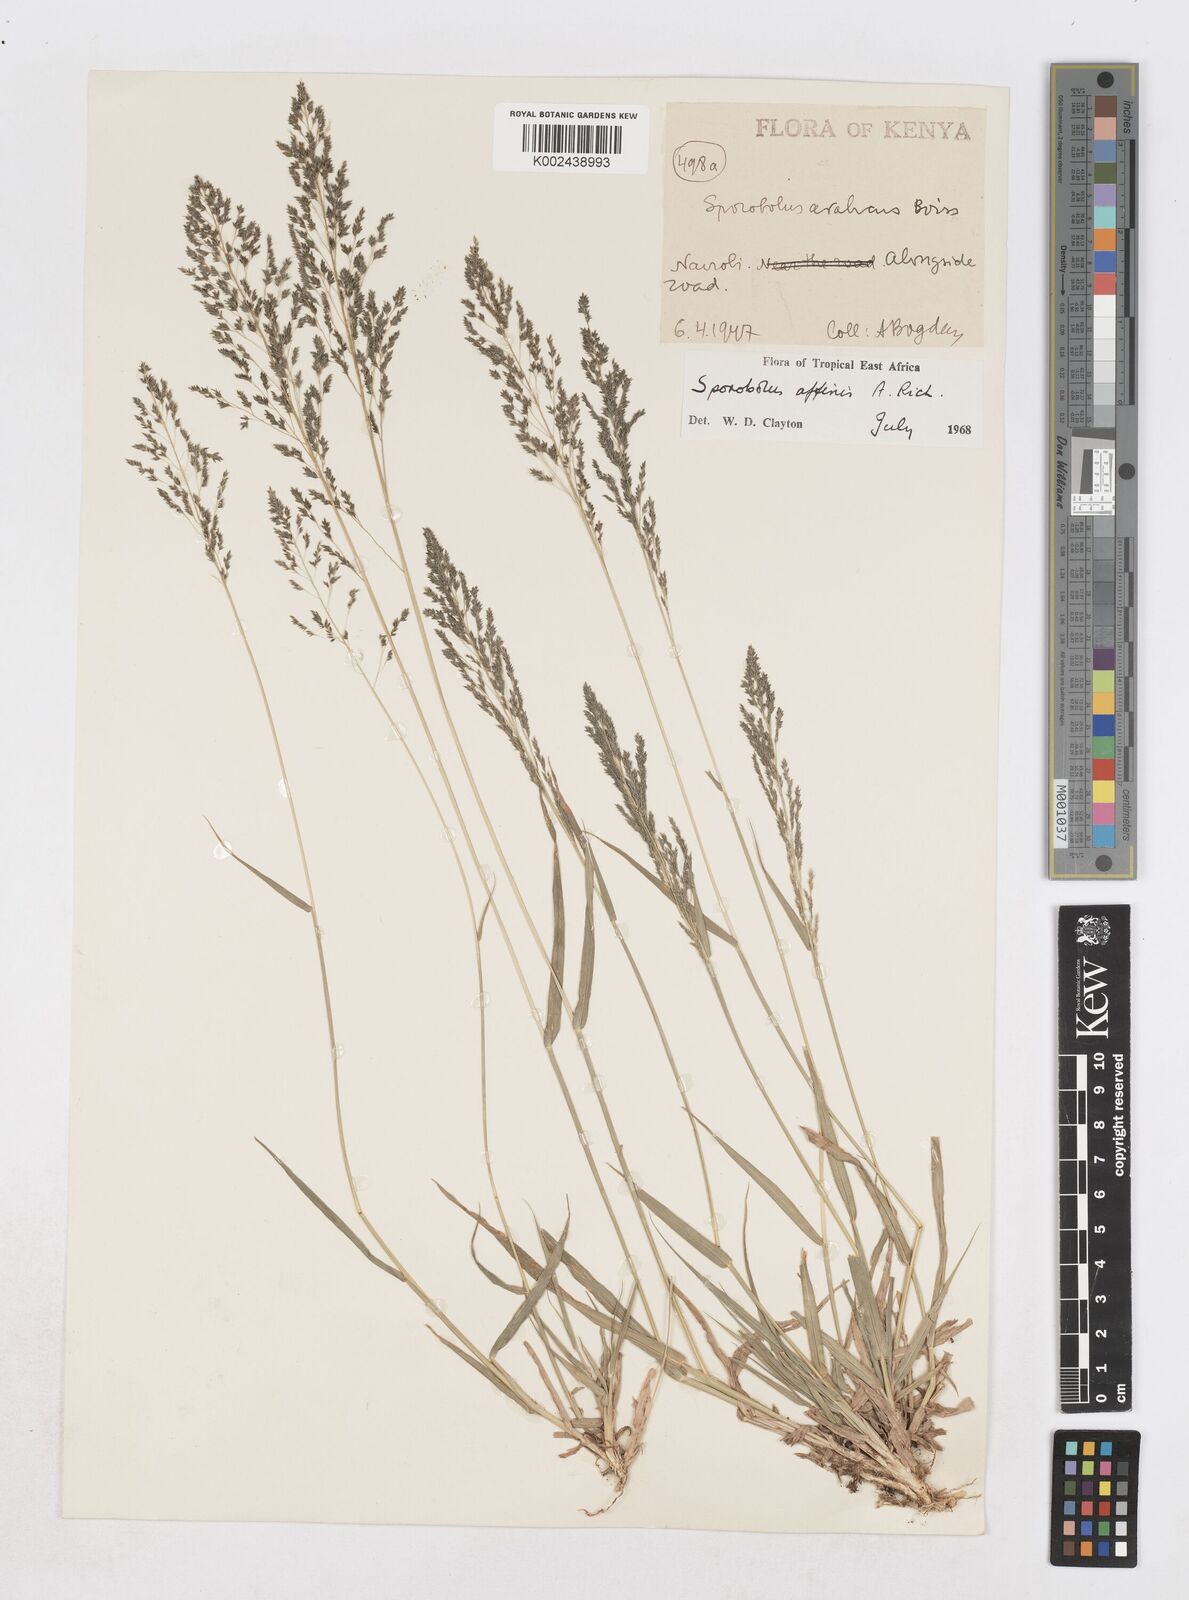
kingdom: Plantae
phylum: Tracheophyta
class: Liliopsida
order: Poales
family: Poaceae
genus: Sporobolus
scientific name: Sporobolus confinis
